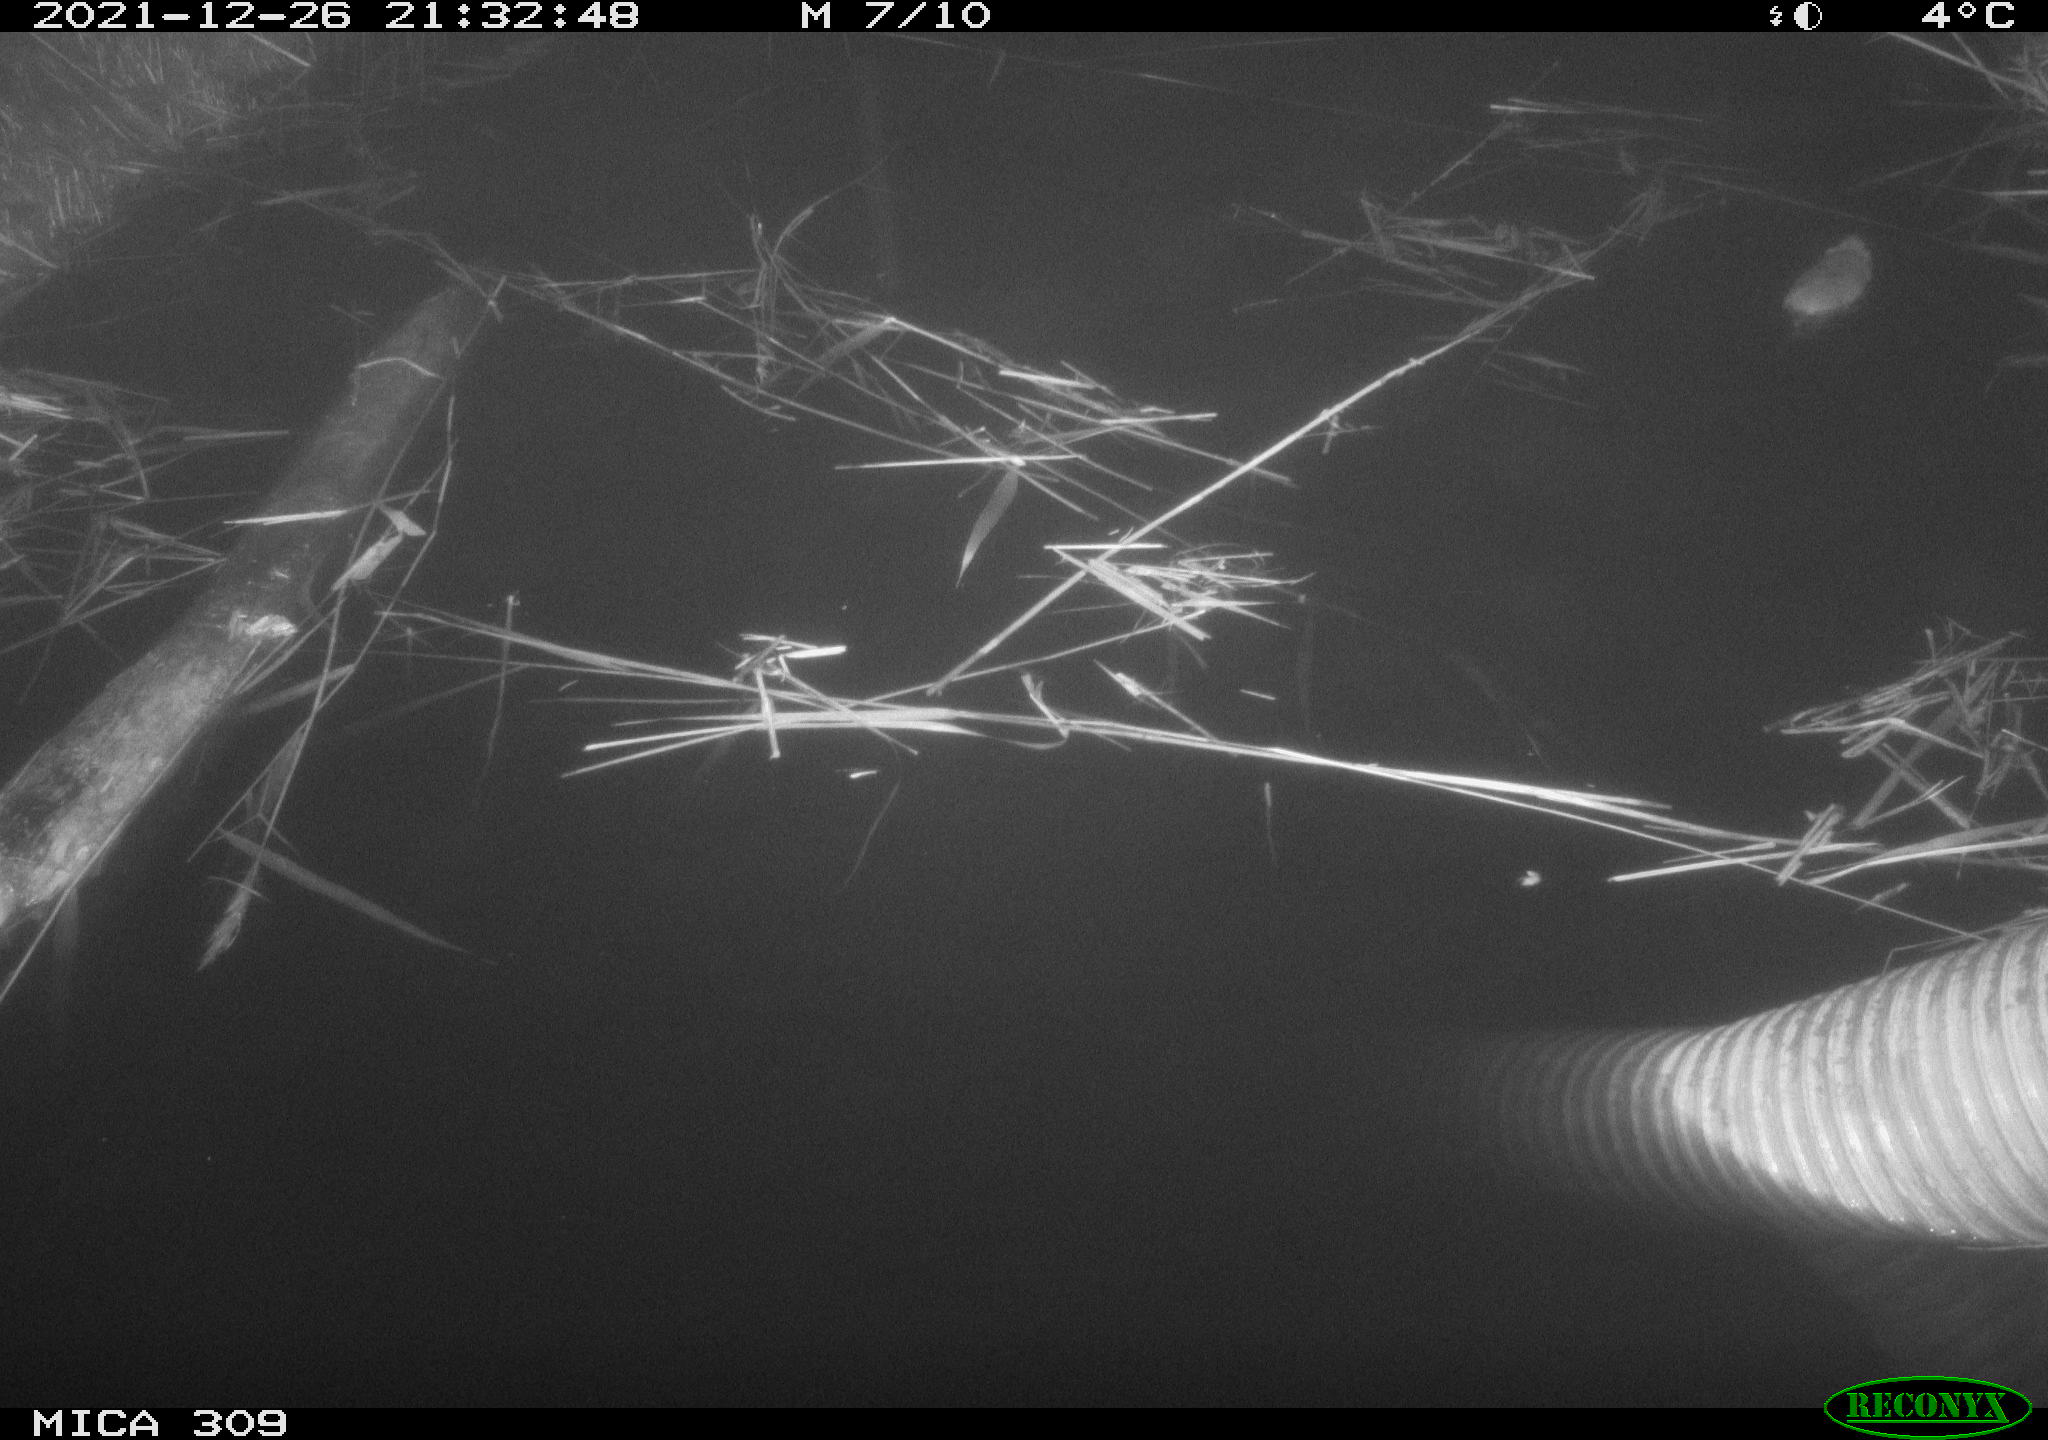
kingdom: Animalia
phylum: Chordata
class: Mammalia
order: Rodentia
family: Muridae
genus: Rattus
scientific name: Rattus norvegicus
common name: Brown rat
